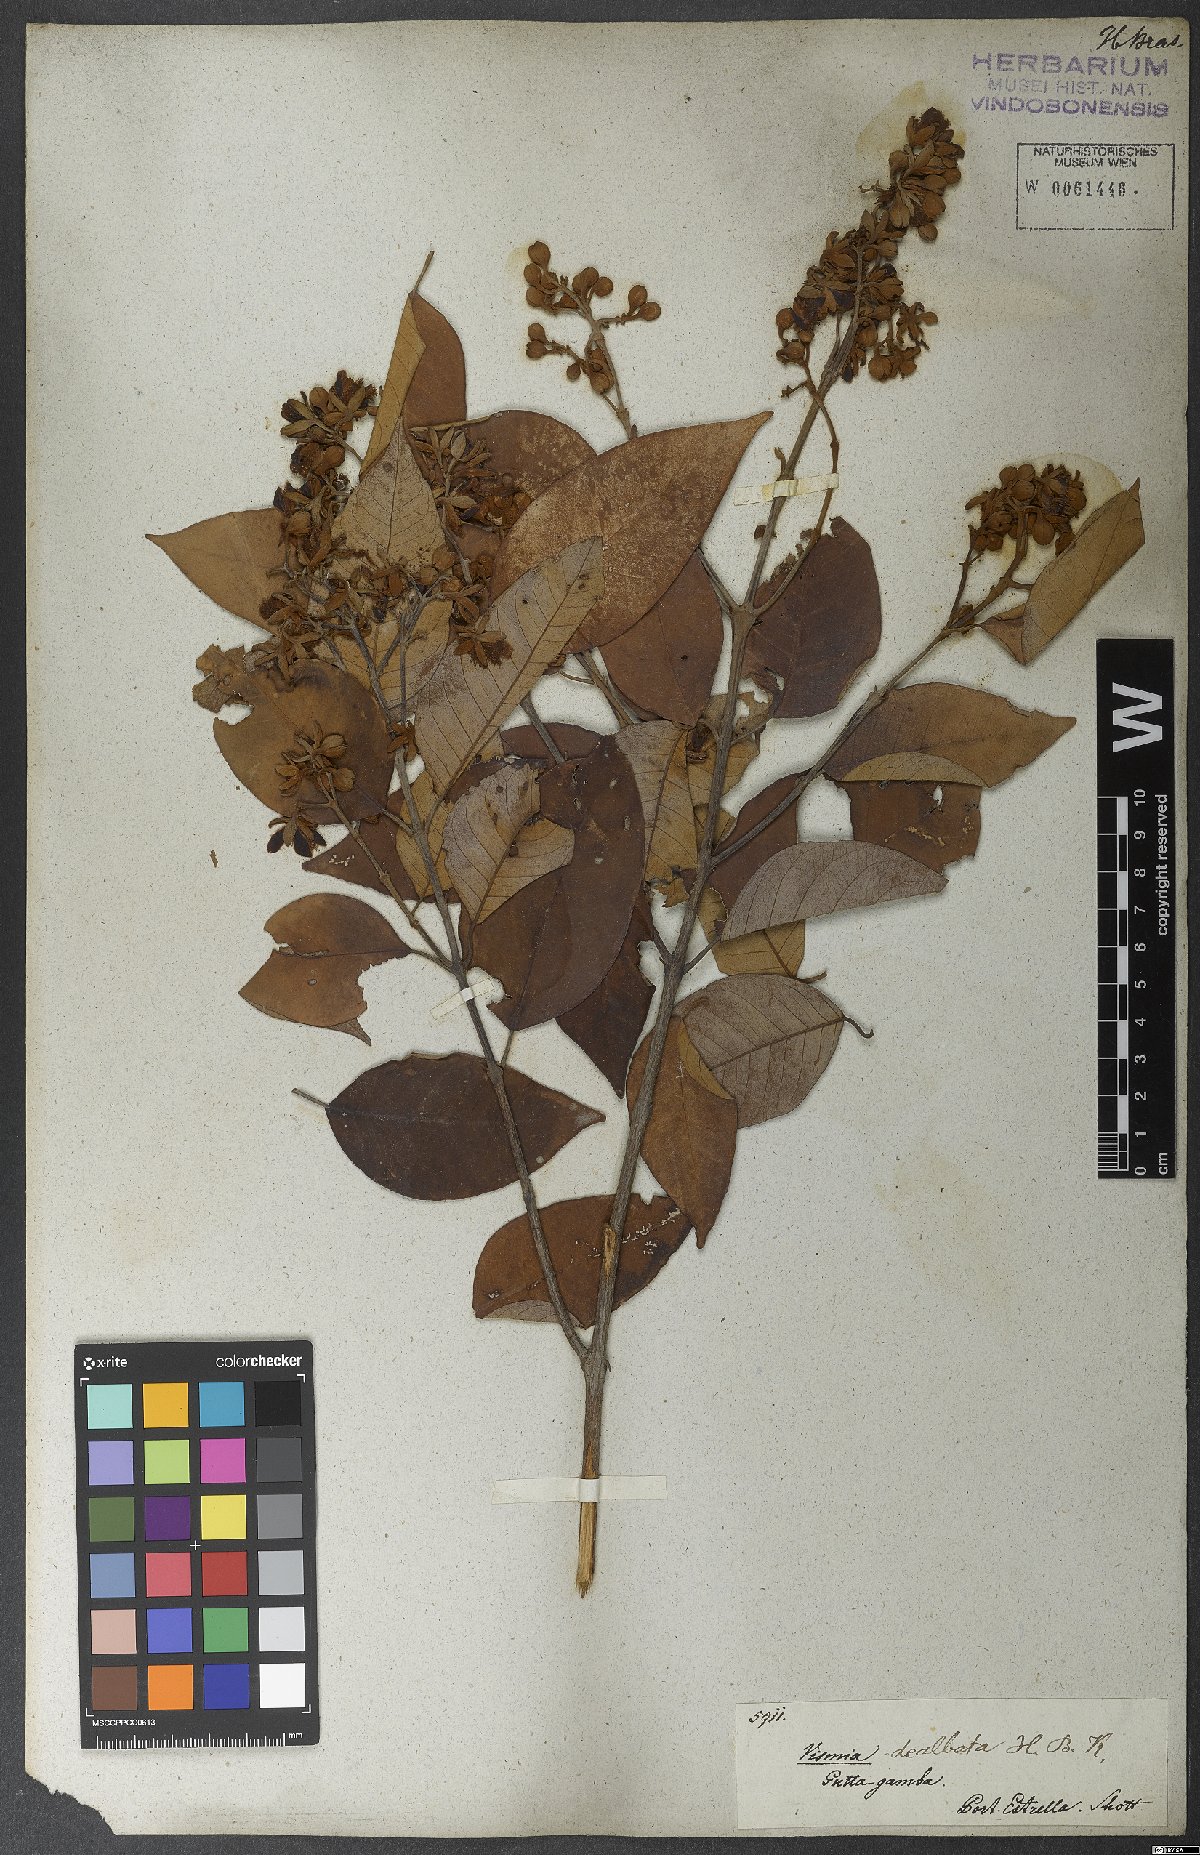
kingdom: Plantae
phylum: Tracheophyta
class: Magnoliopsida
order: Malpighiales
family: Hypericaceae
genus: Vismia
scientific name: Vismia baccifera
